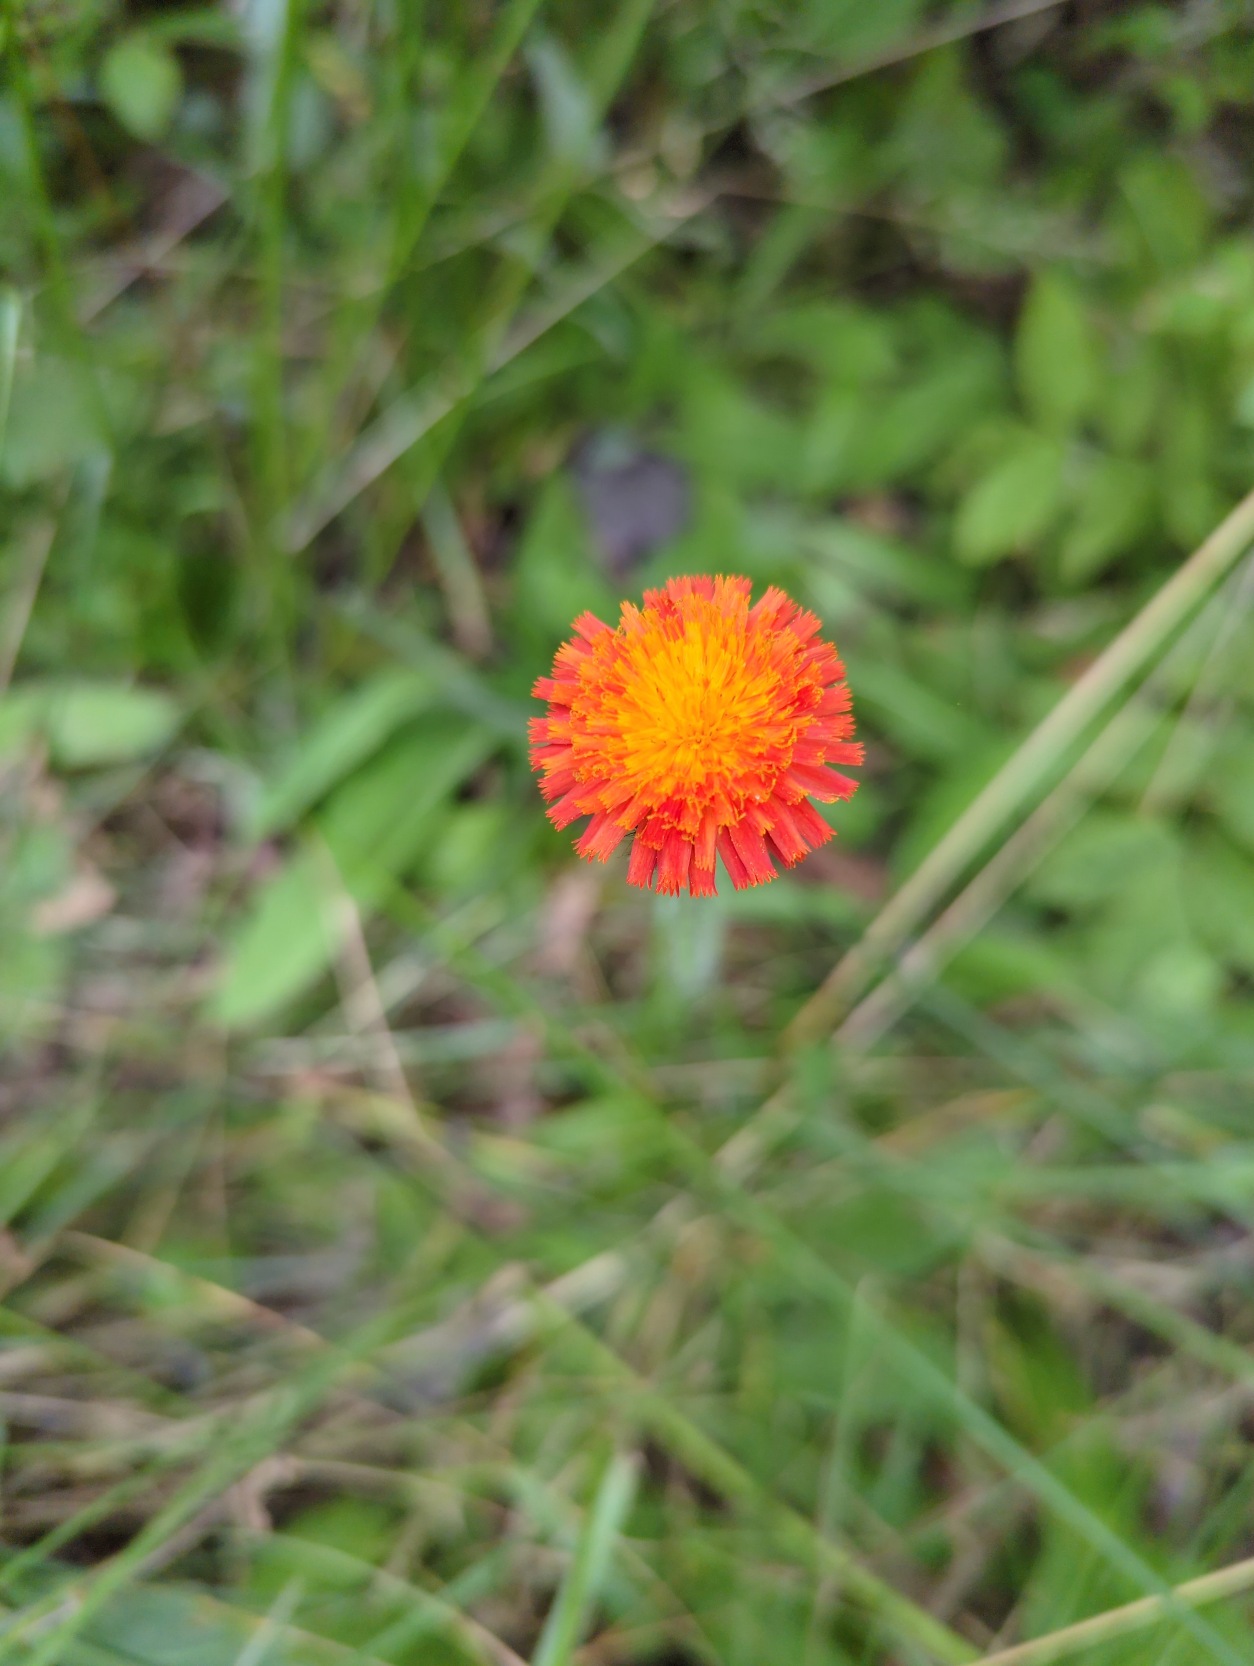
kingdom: Plantae
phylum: Tracheophyta
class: Magnoliopsida
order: Asterales
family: Asteraceae
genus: Pilosella
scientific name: Pilosella aurantiaca
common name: Pomerans-høgeurt
